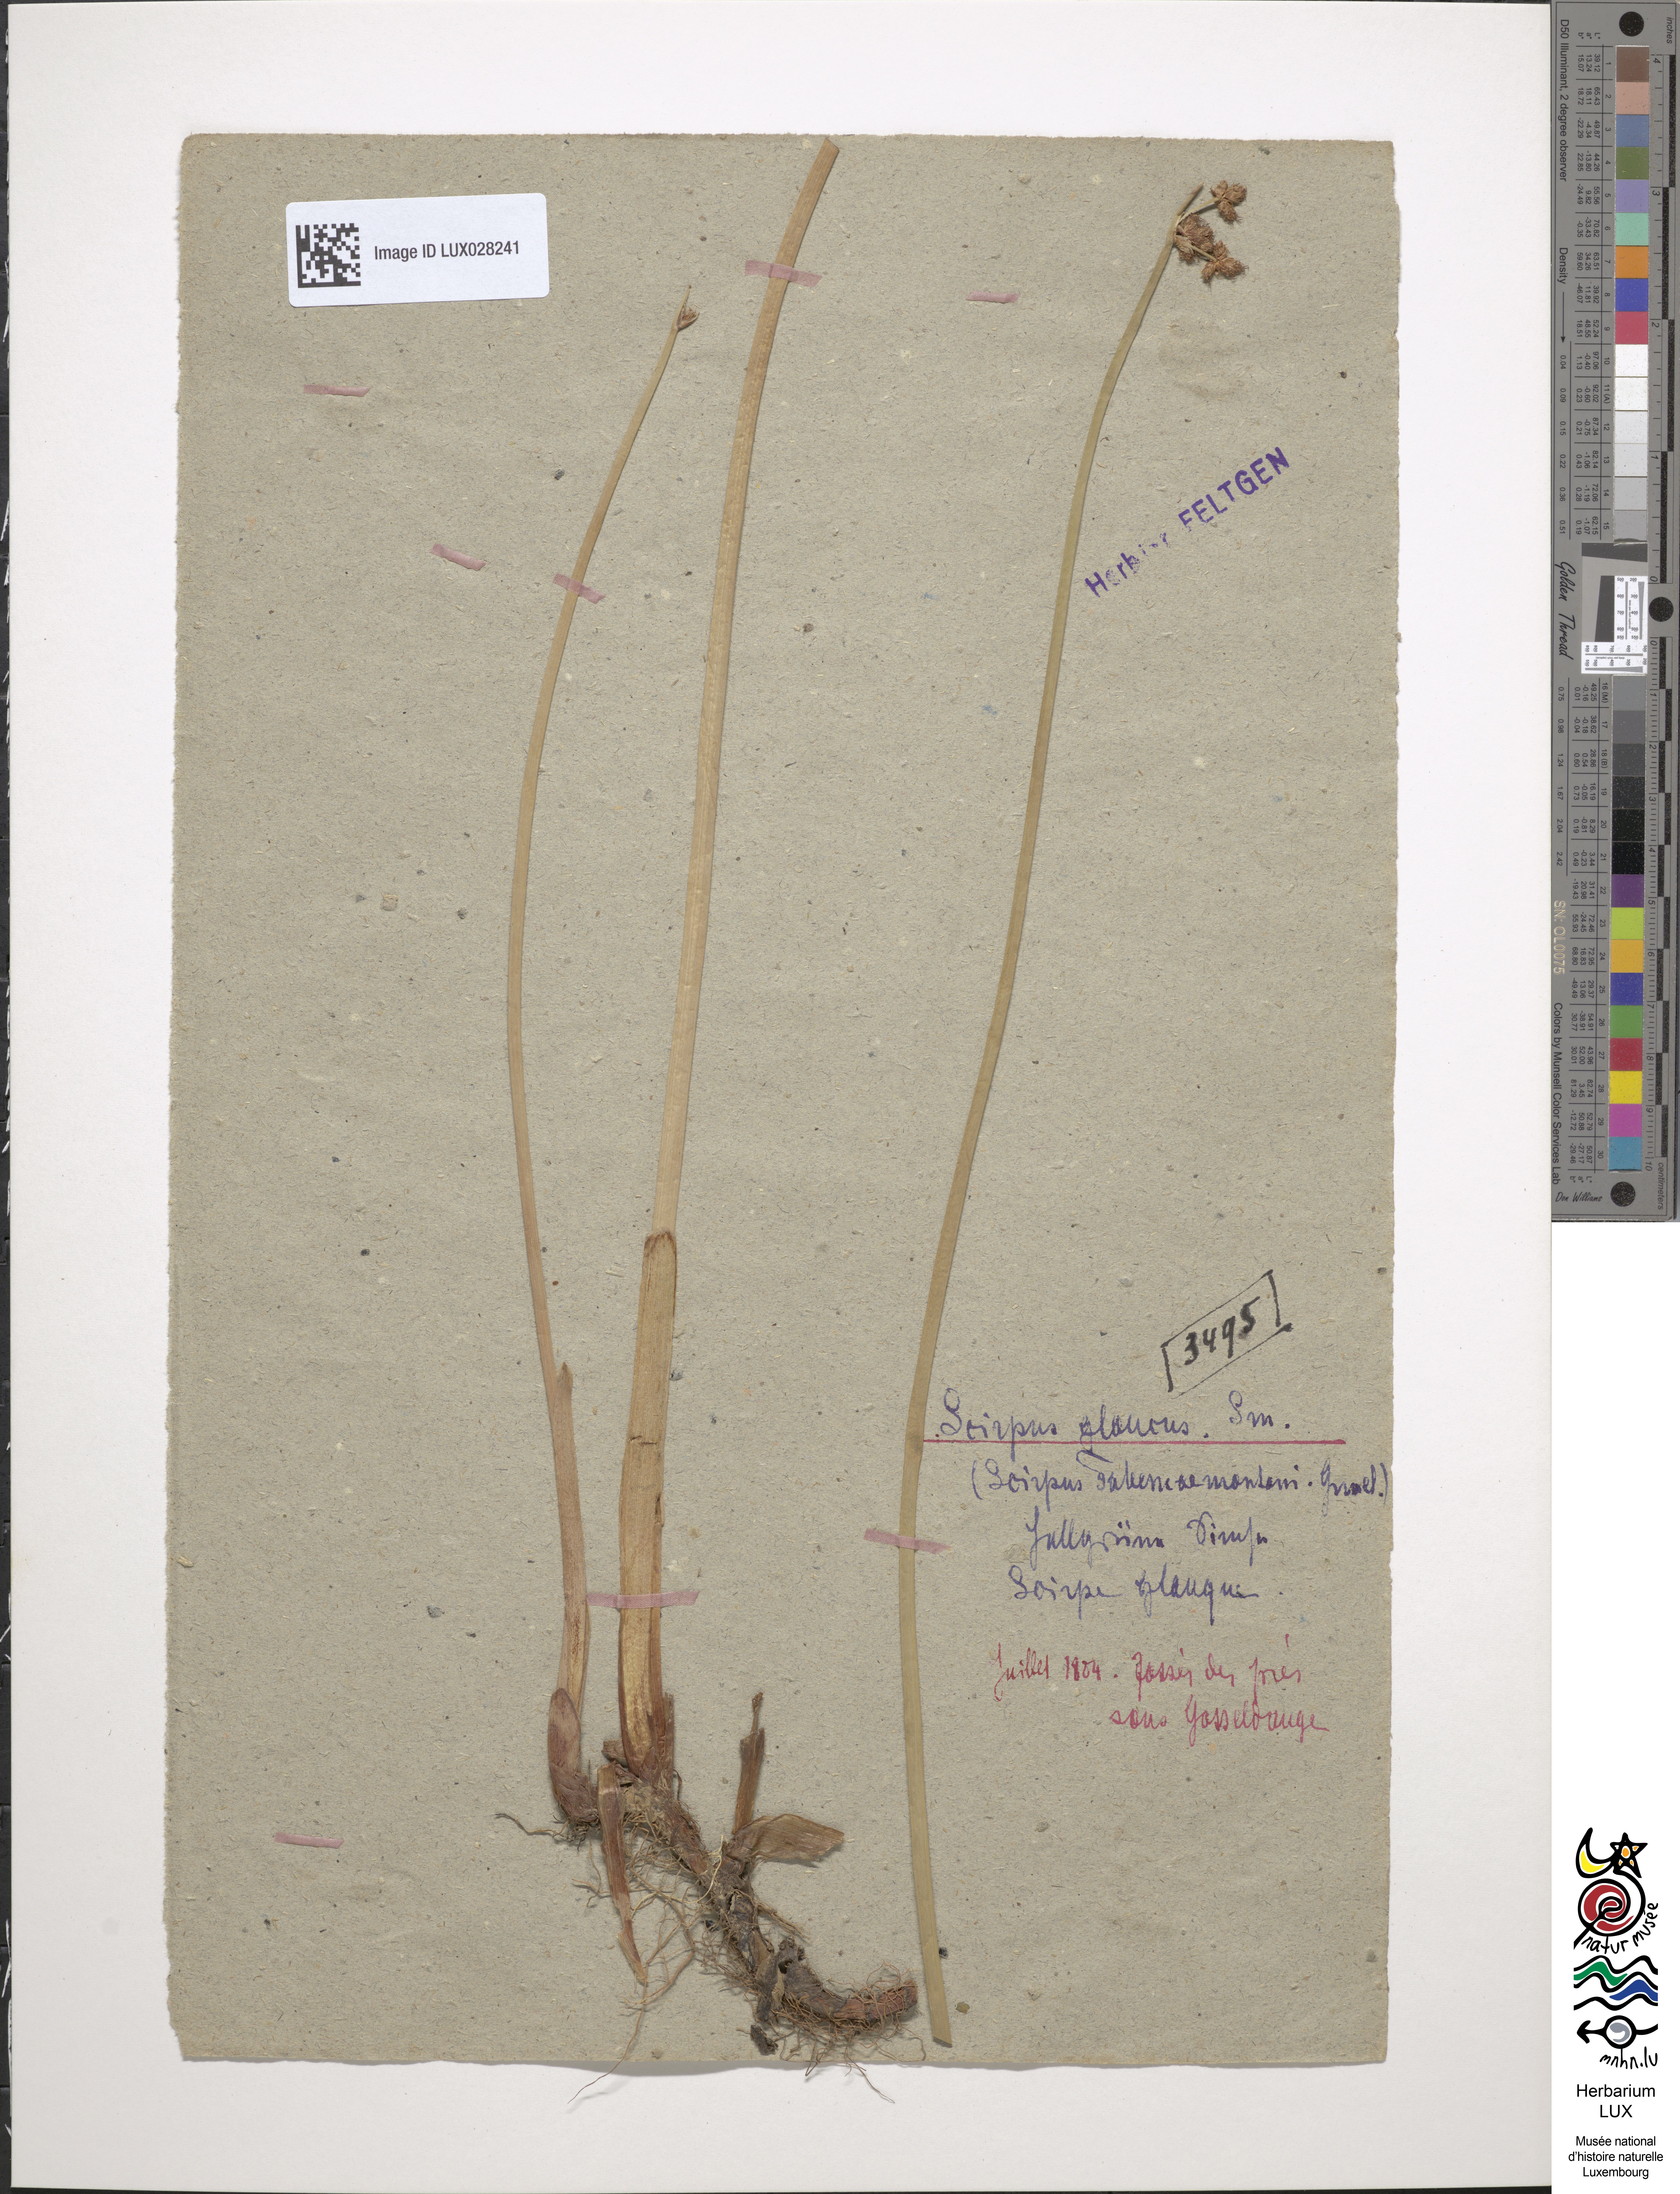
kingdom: Plantae
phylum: Tracheophyta
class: Liliopsida
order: Poales
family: Cyperaceae
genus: Schoenoplectus
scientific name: Schoenoplectus tabernaemontani
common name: Grey club-rush
